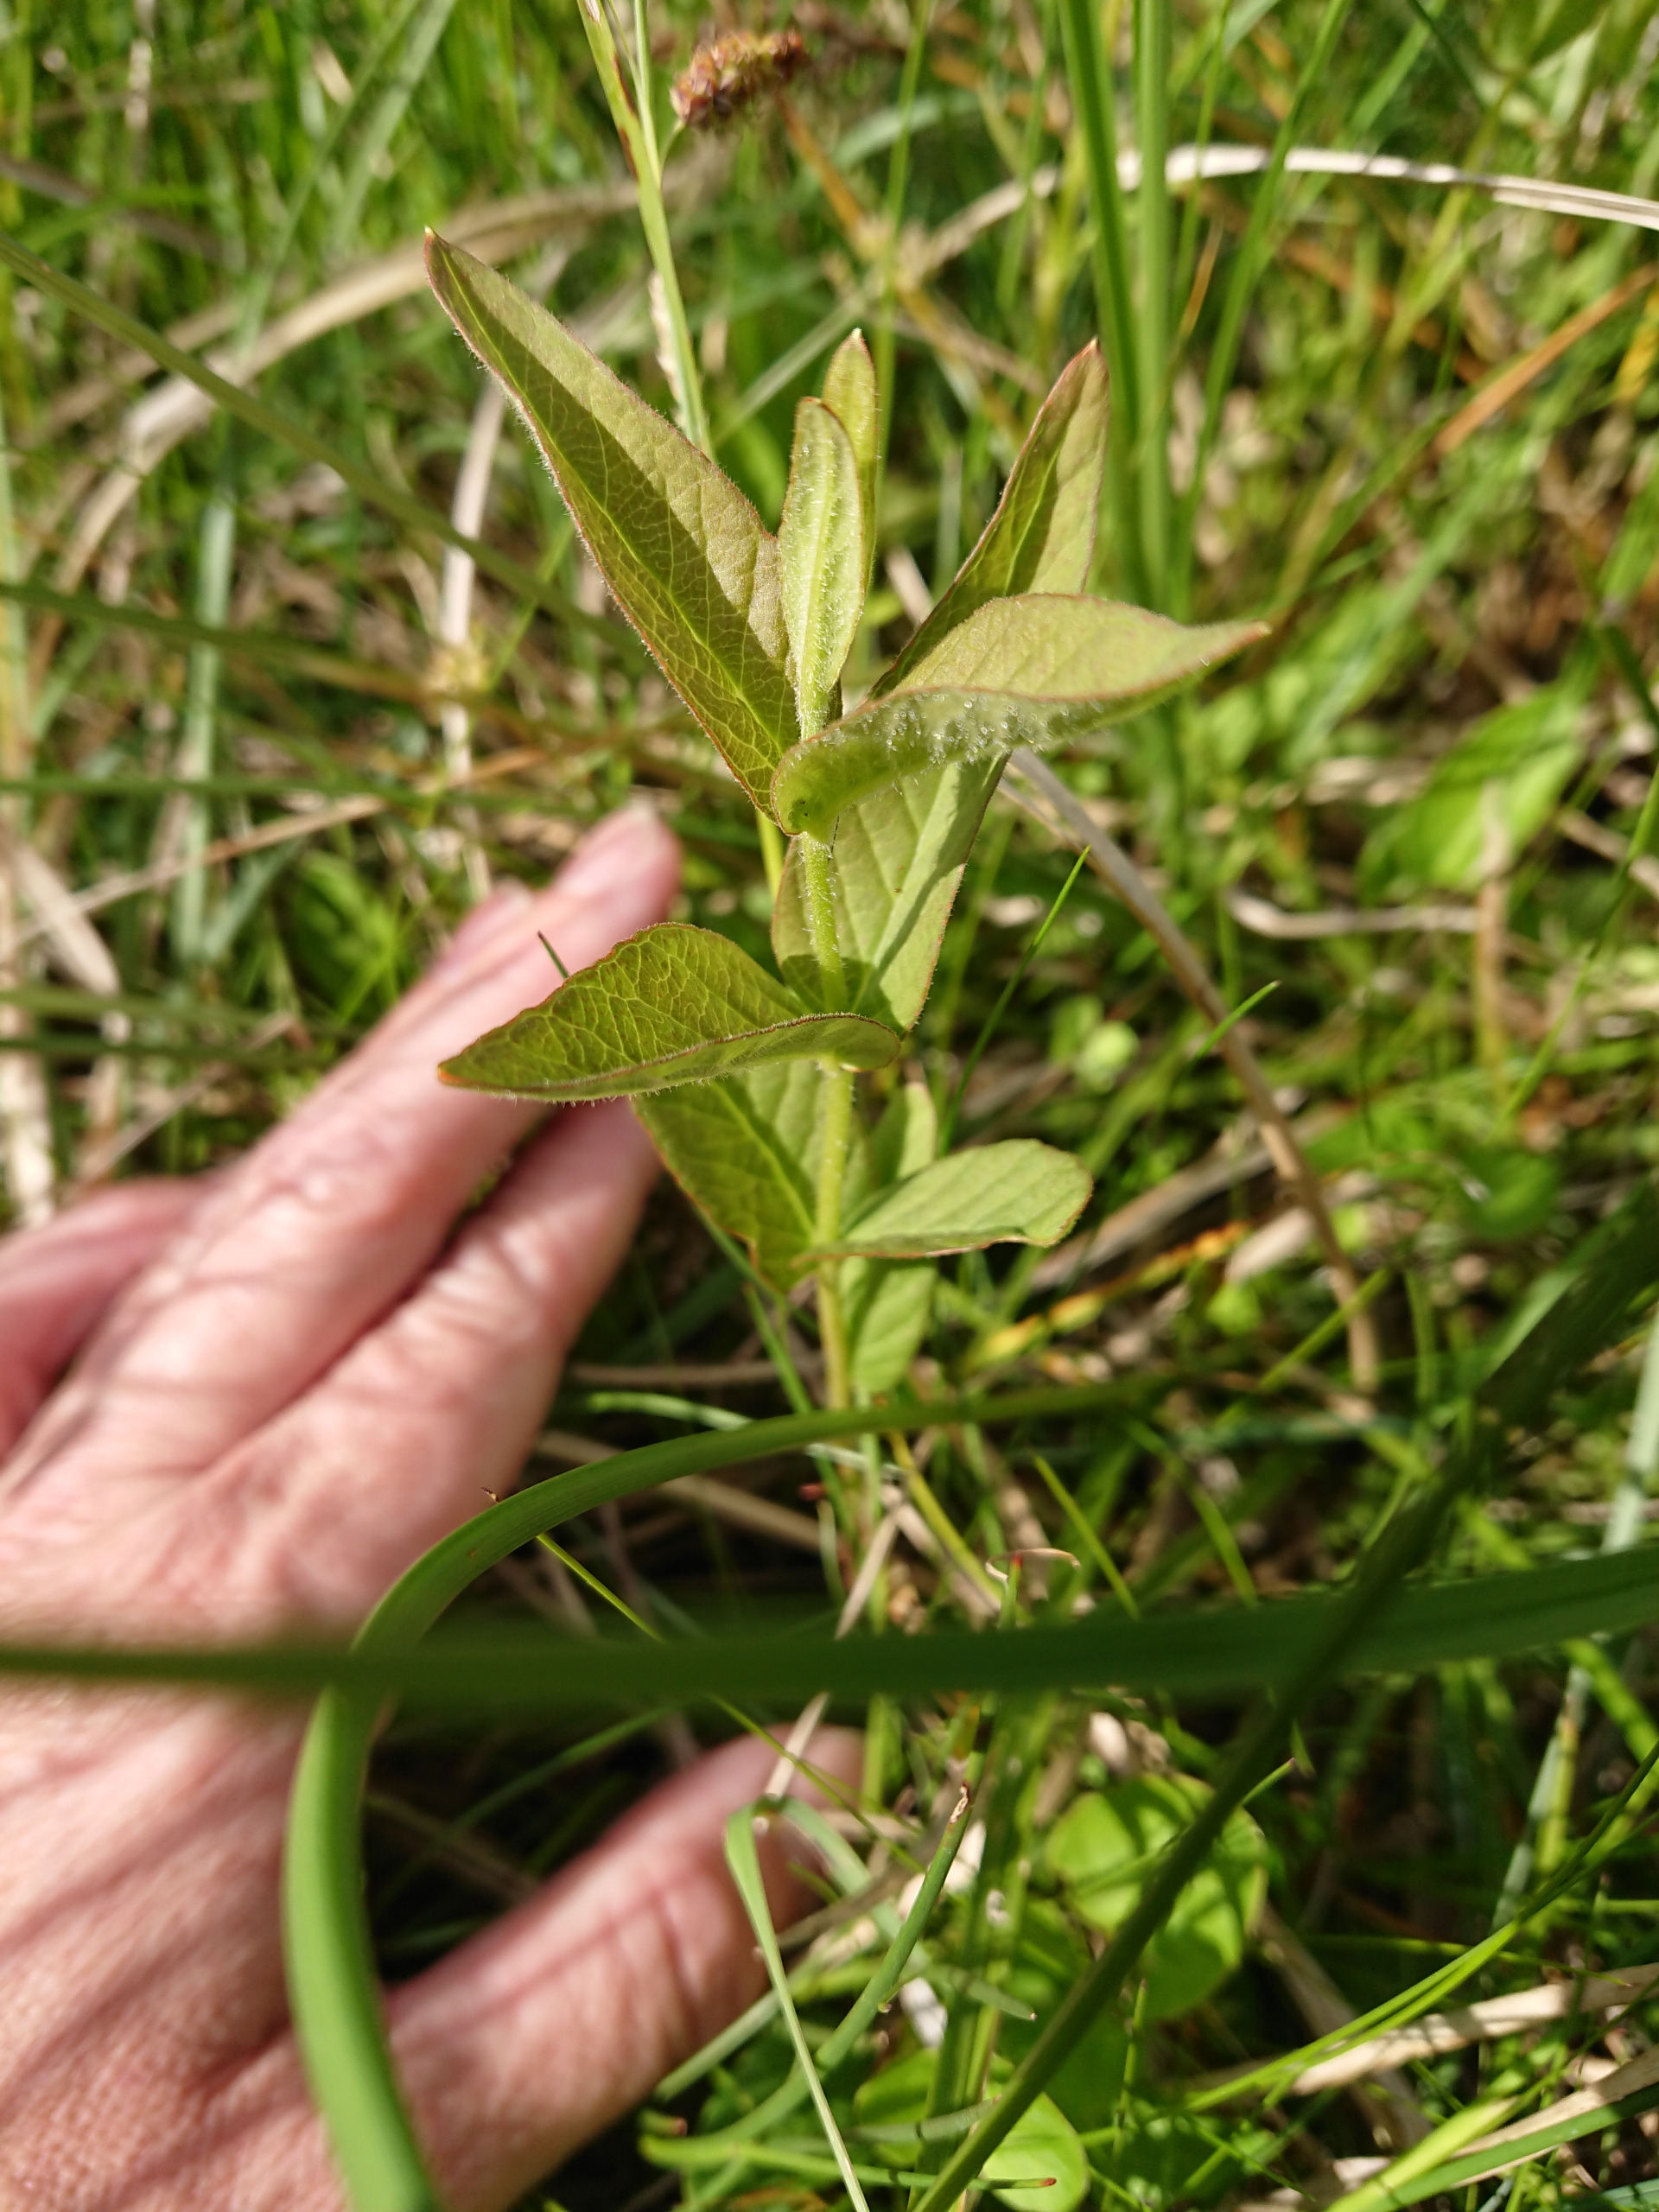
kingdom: Plantae
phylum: Tracheophyta
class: Magnoliopsida
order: Ericales
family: Primulaceae
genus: Lysimachia
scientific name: Lysimachia vulgaris
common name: Almindelig fredløs
